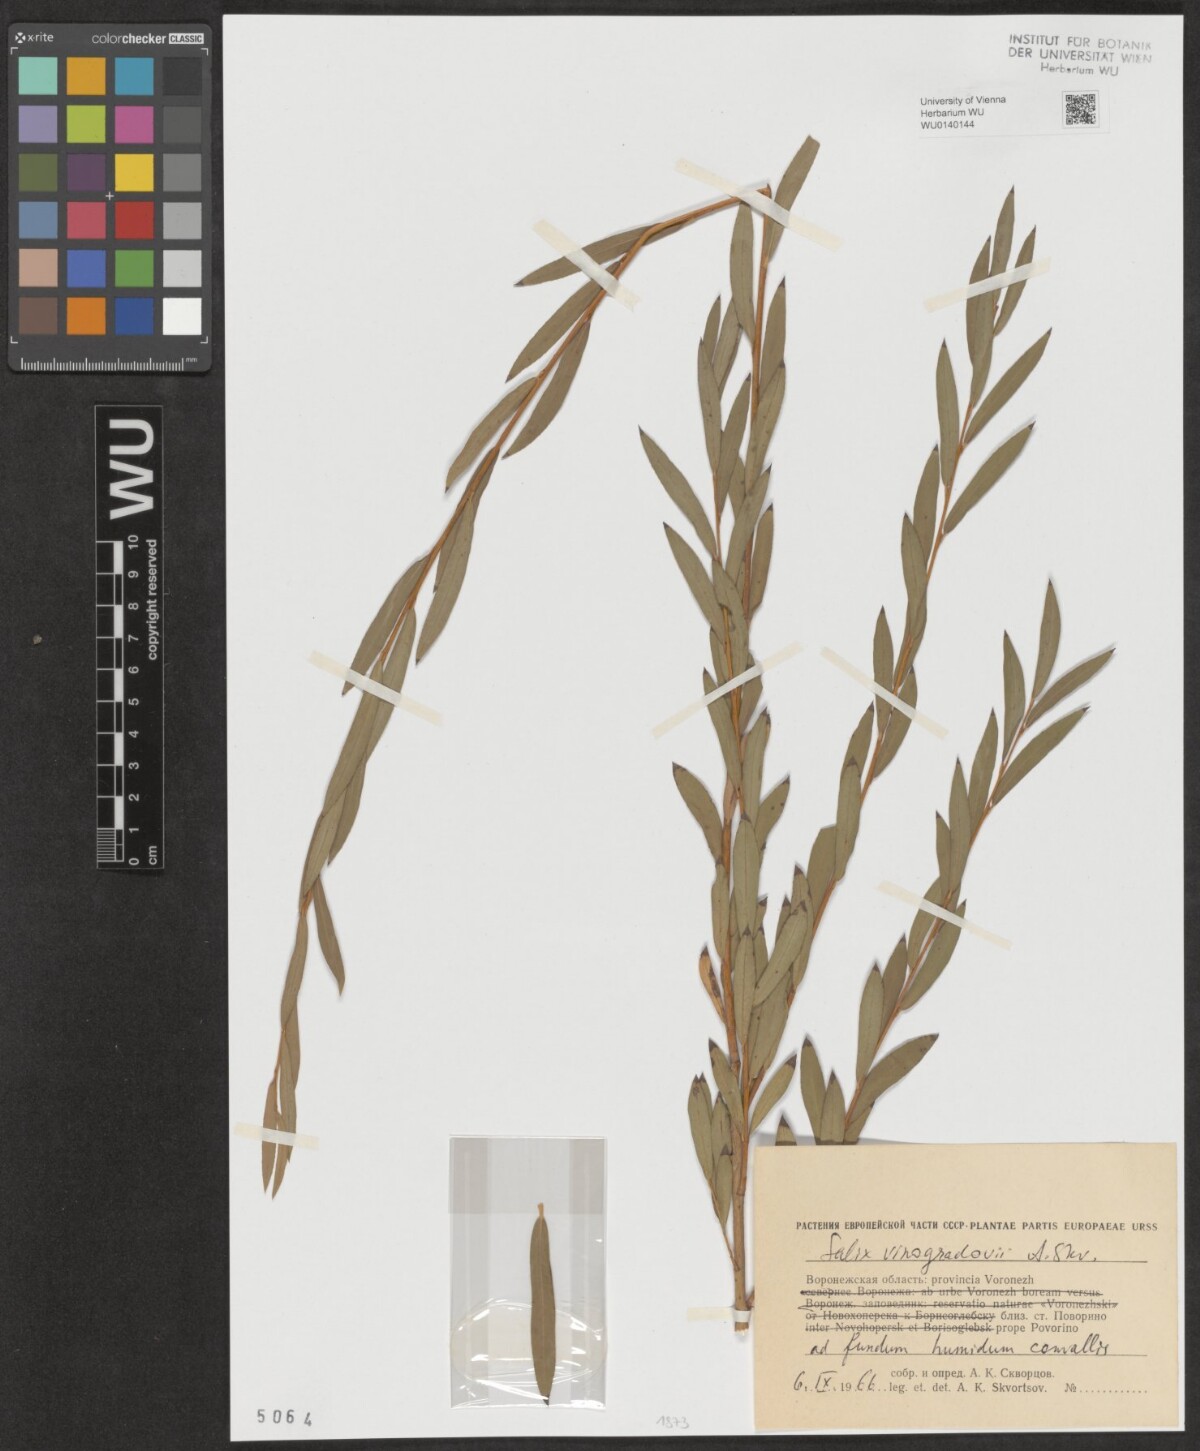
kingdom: Plantae
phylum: Tracheophyta
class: Magnoliopsida
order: Malpighiales
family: Salicaceae
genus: Salix
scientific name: Salix vinogradovii
